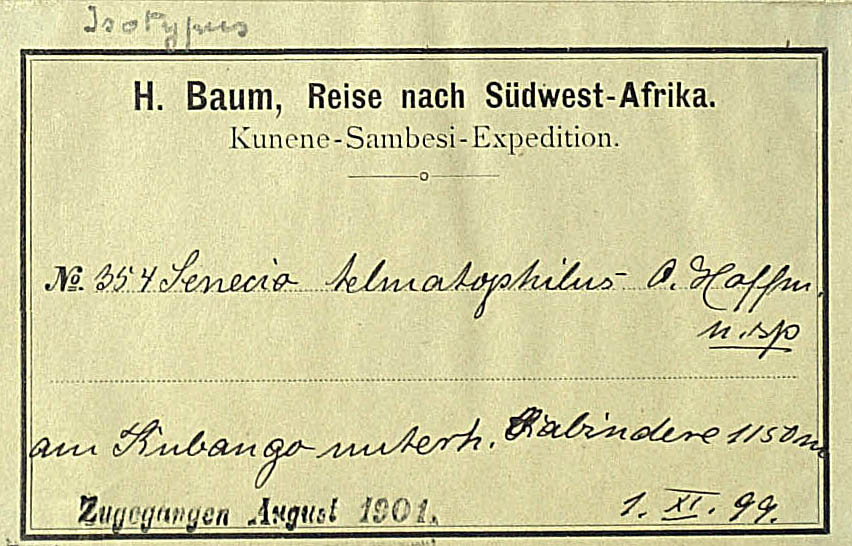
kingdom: Plantae
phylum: Tracheophyta
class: Magnoliopsida
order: Asterales
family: Asteraceae
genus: Crassocephalum
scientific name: Crassocephalum uvens
